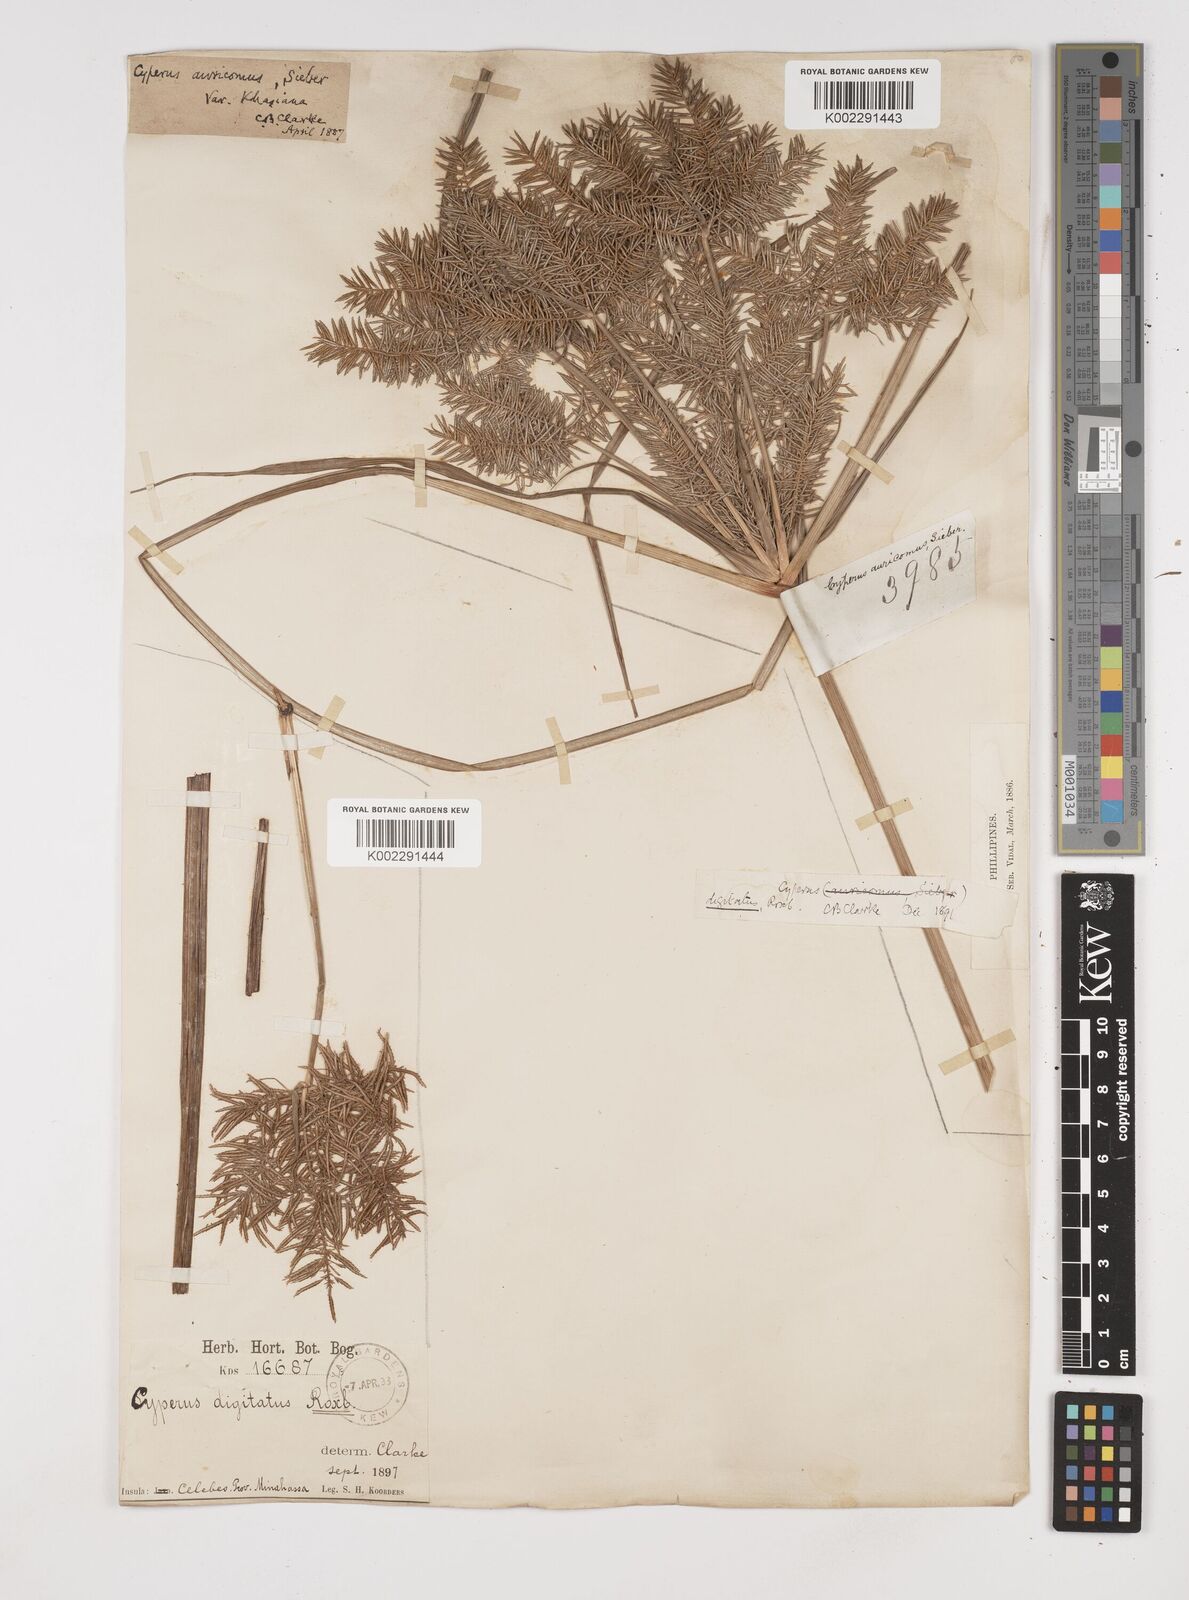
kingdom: Plantae
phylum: Tracheophyta
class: Liliopsida
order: Poales
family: Cyperaceae
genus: Cyperus
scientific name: Cyperus digitatus
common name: Finger flatsedge
